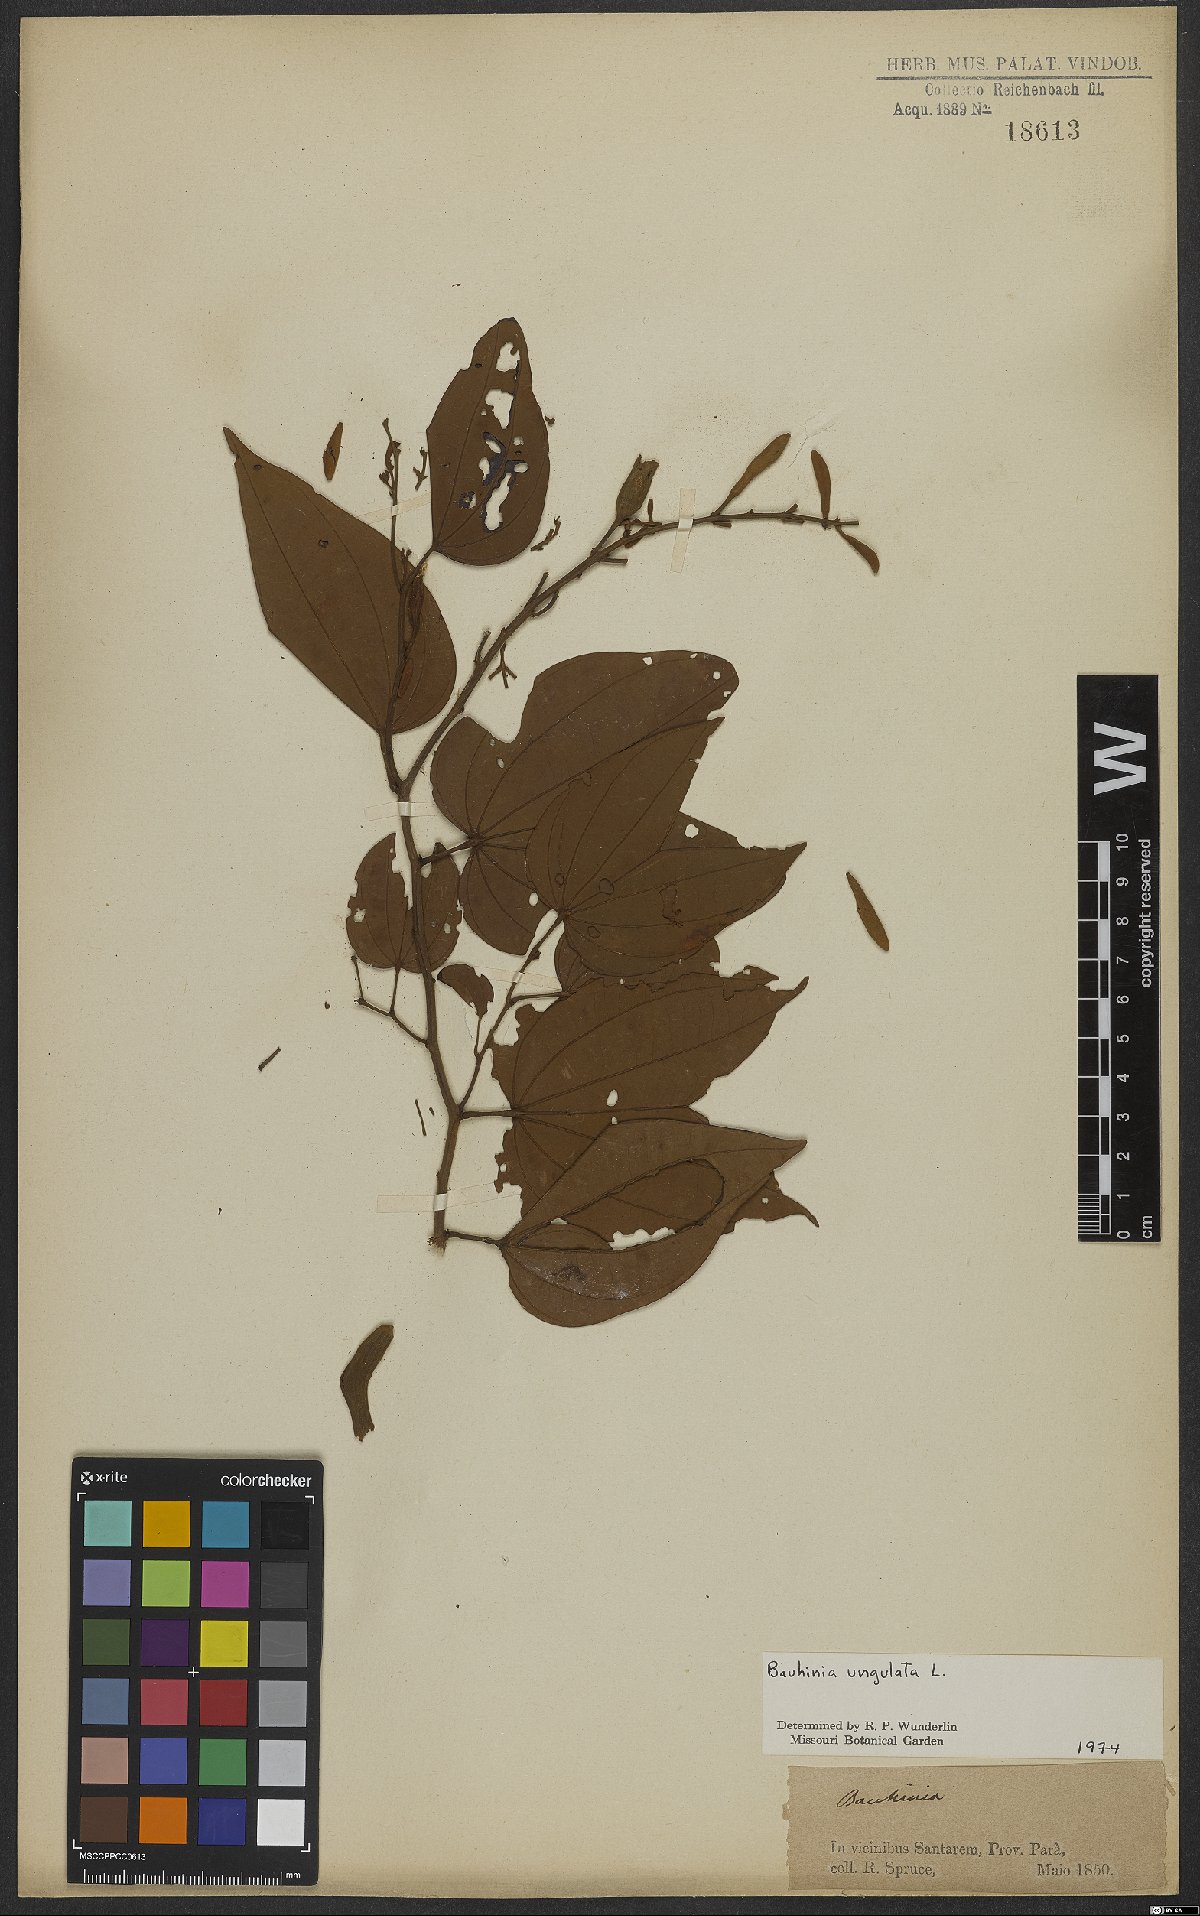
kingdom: Plantae
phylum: Tracheophyta
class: Magnoliopsida
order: Fabales
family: Fabaceae
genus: Bauhinia
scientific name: Bauhinia ungulata
